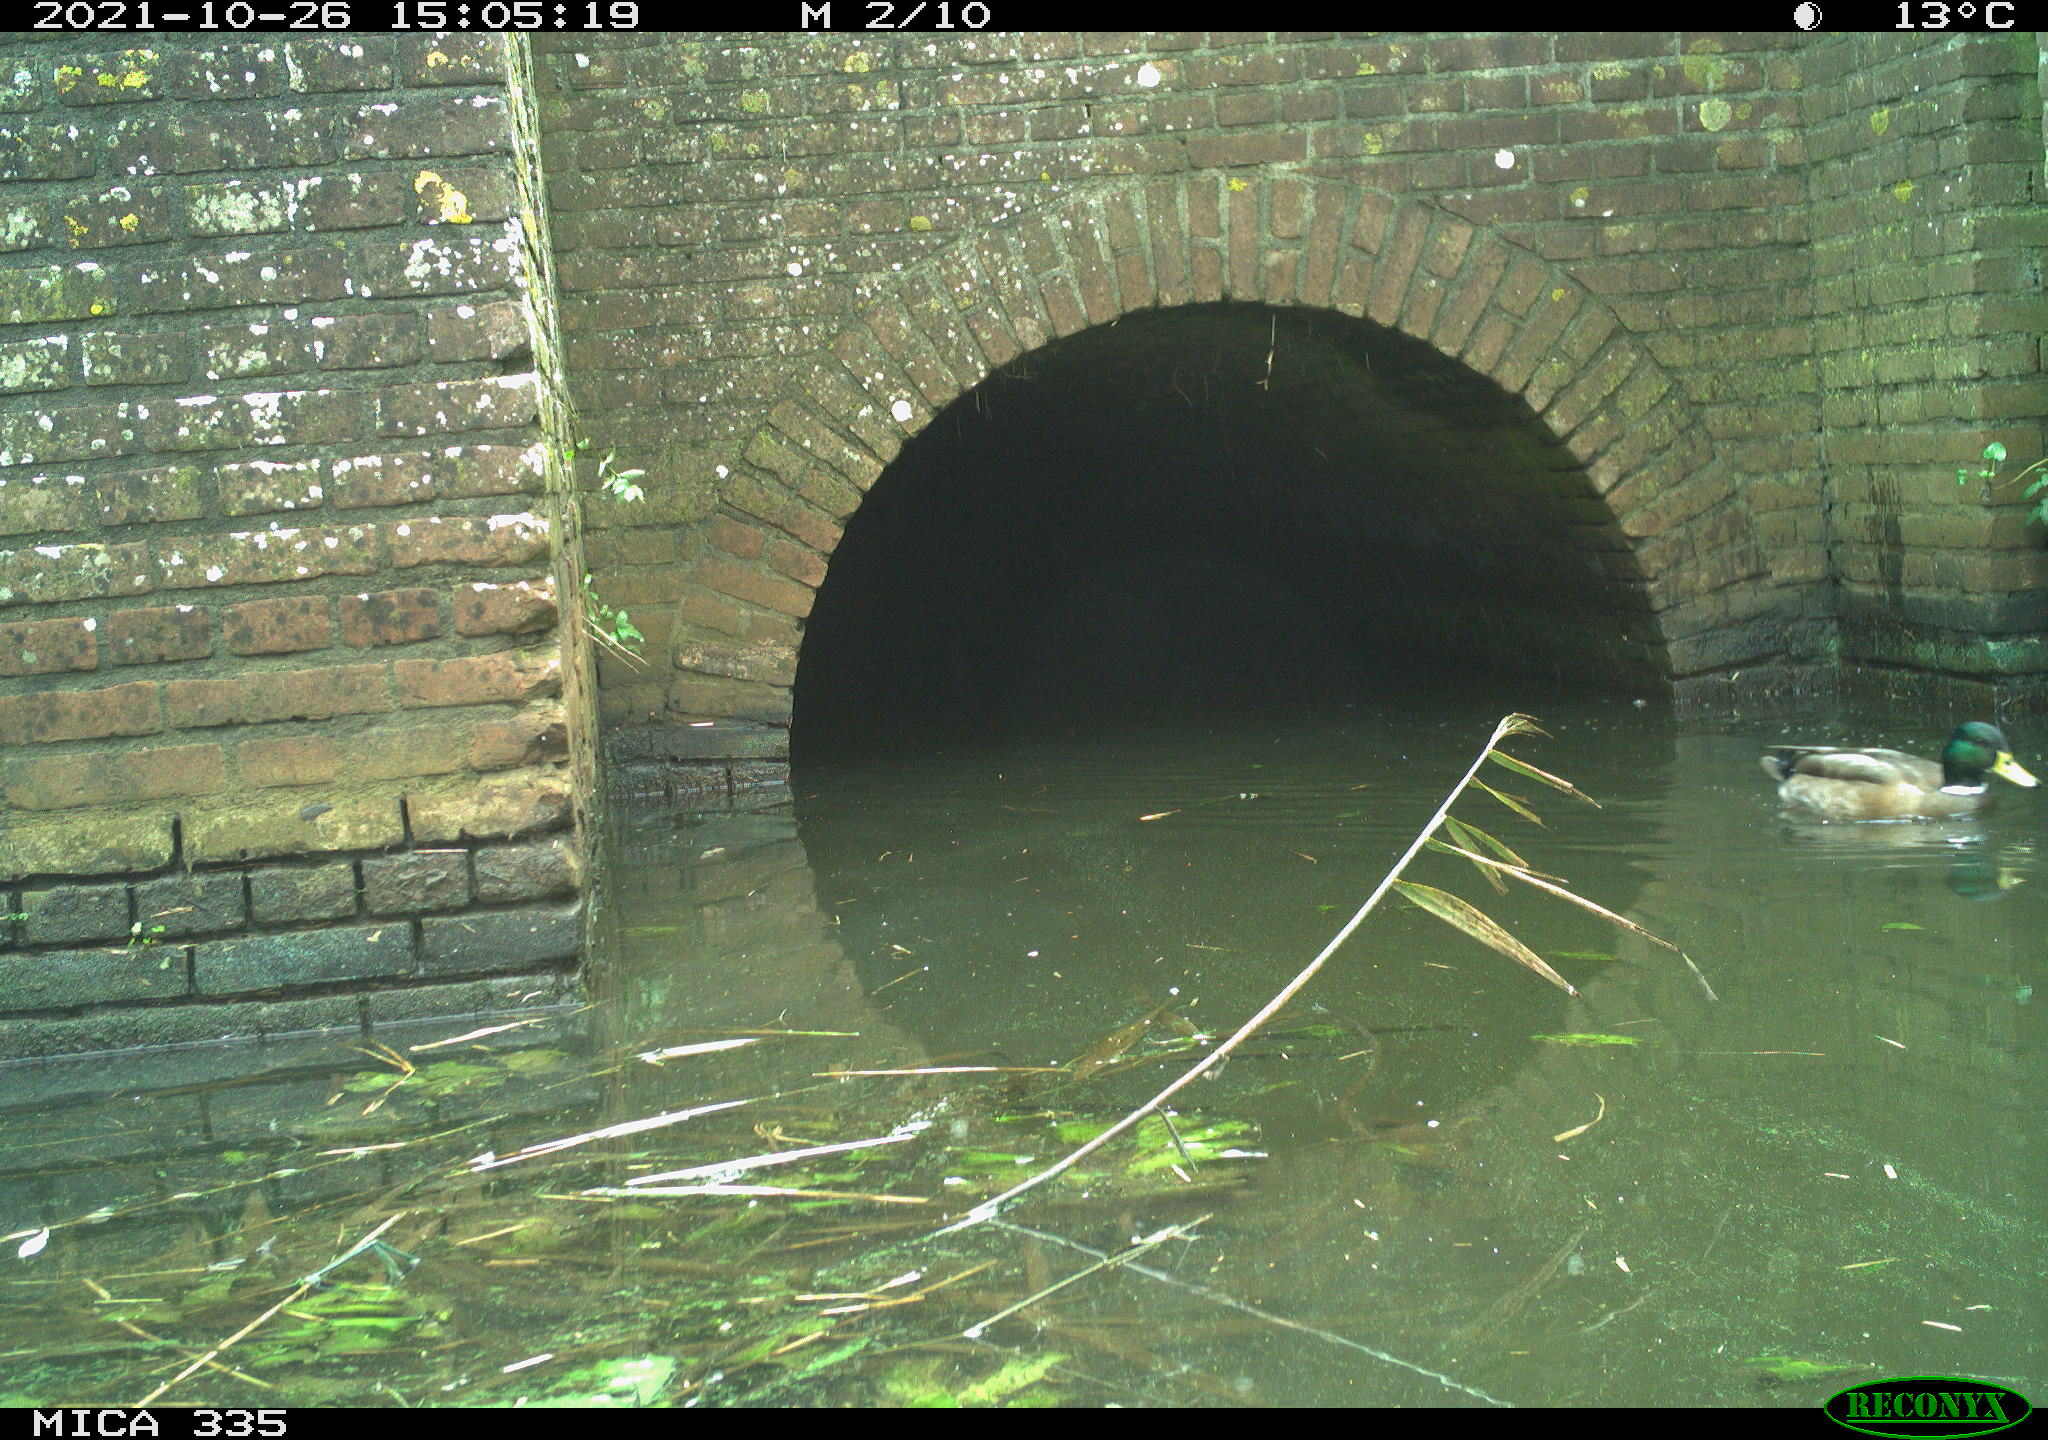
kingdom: Animalia
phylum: Chordata
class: Aves
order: Anseriformes
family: Anatidae
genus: Anas
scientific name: Anas platyrhynchos
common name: Mallard
